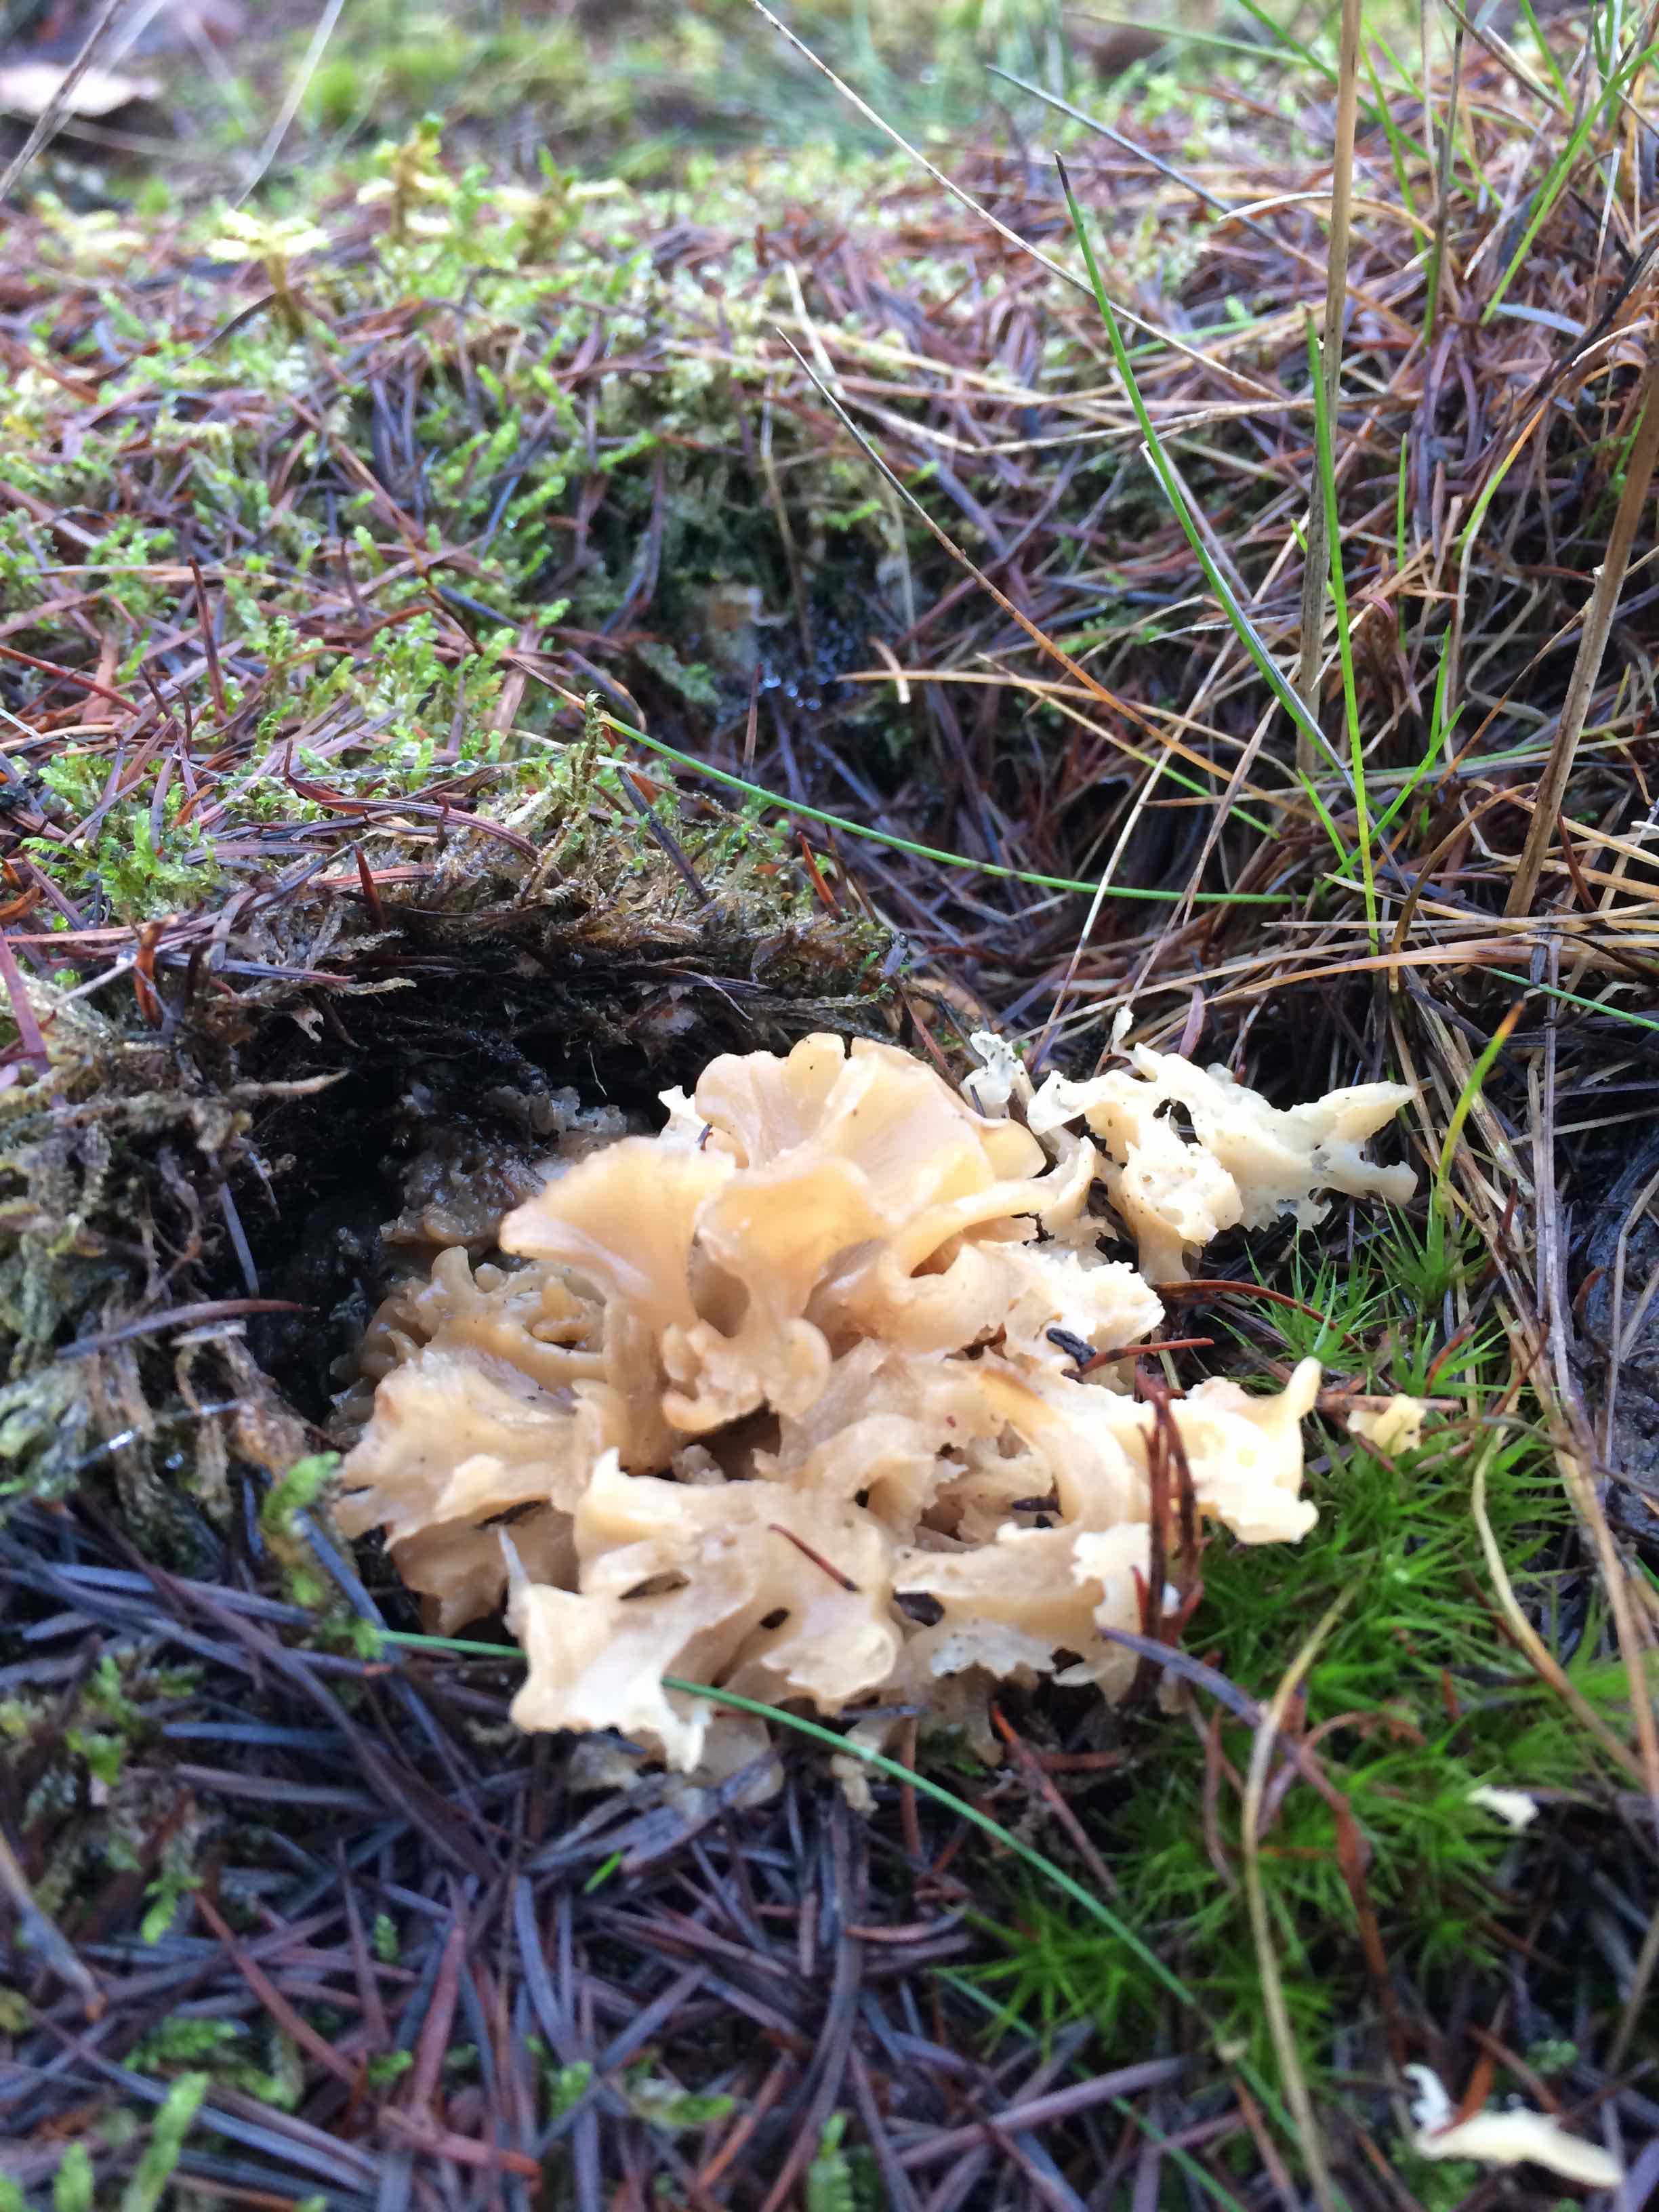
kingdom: Fungi
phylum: Basidiomycota
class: Agaricomycetes
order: Polyporales
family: Sparassidaceae
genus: Sparassis
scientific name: Sparassis crispa
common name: kruset blomkålssvamp
